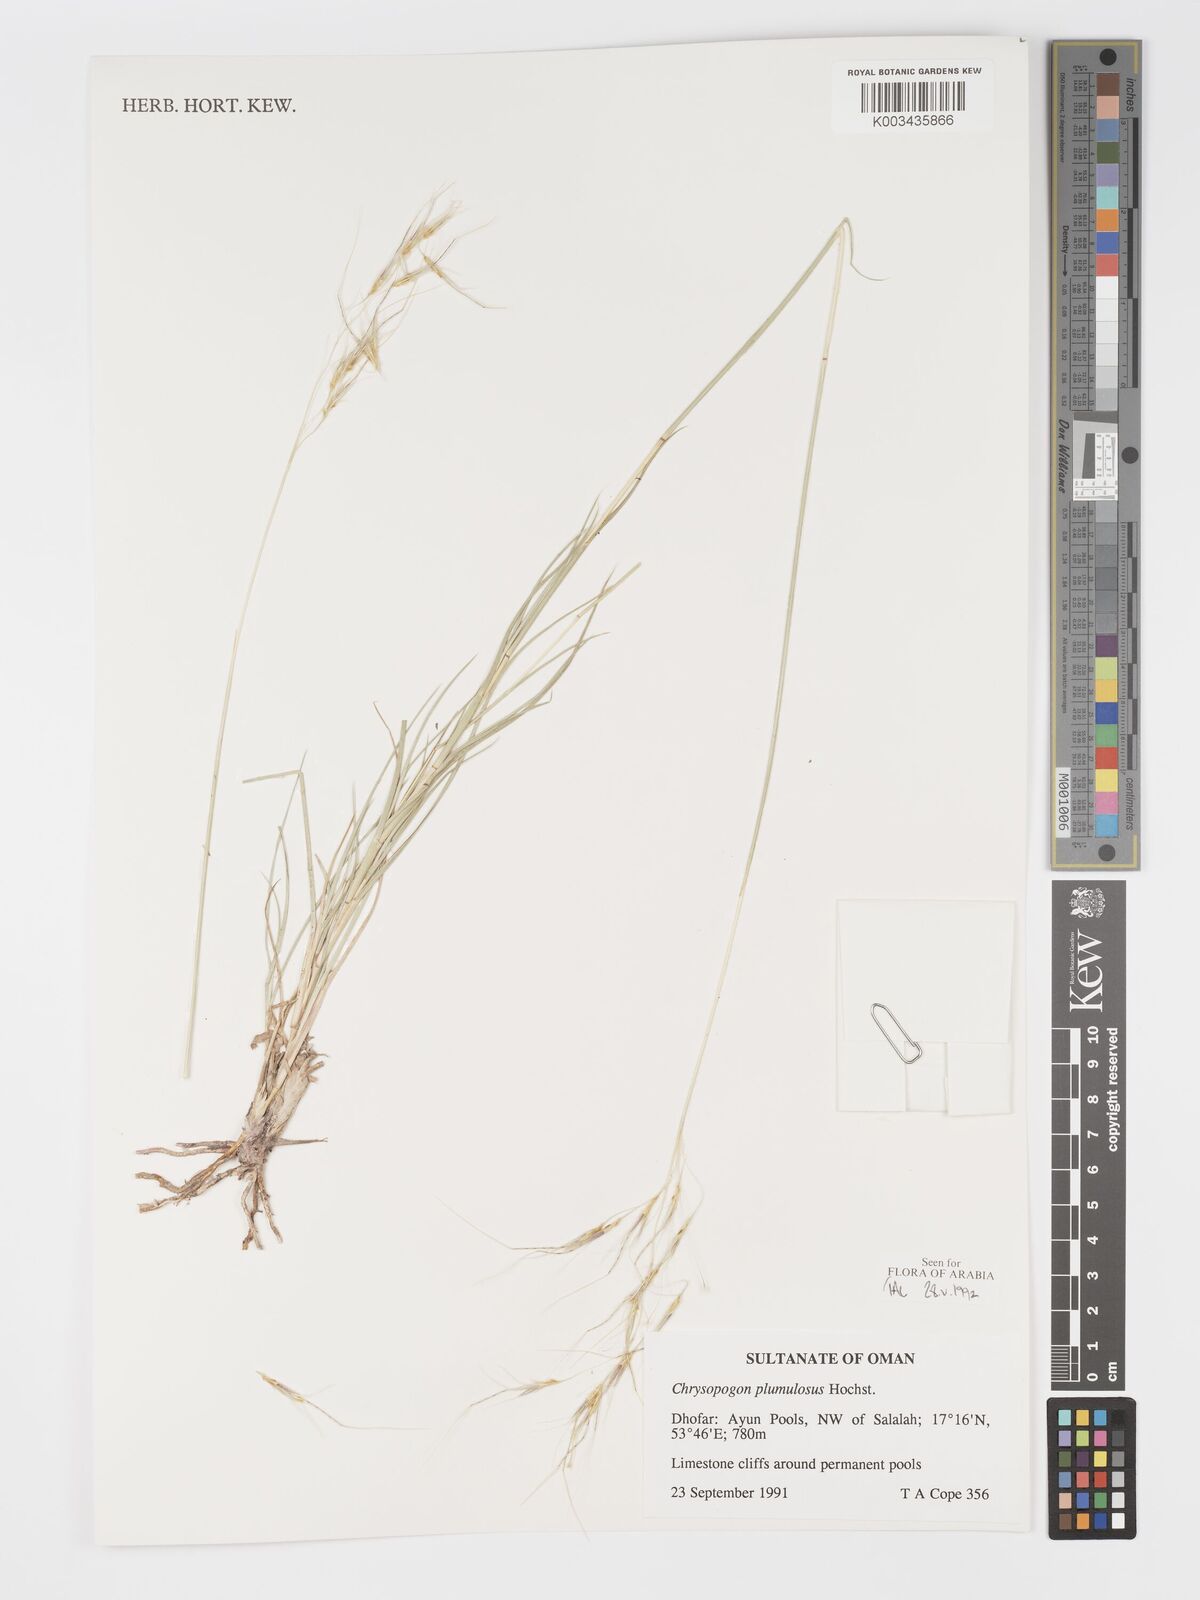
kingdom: Plantae
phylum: Tracheophyta
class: Liliopsida
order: Poales
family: Poaceae
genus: Chrysopogon
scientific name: Chrysopogon plumulosus
